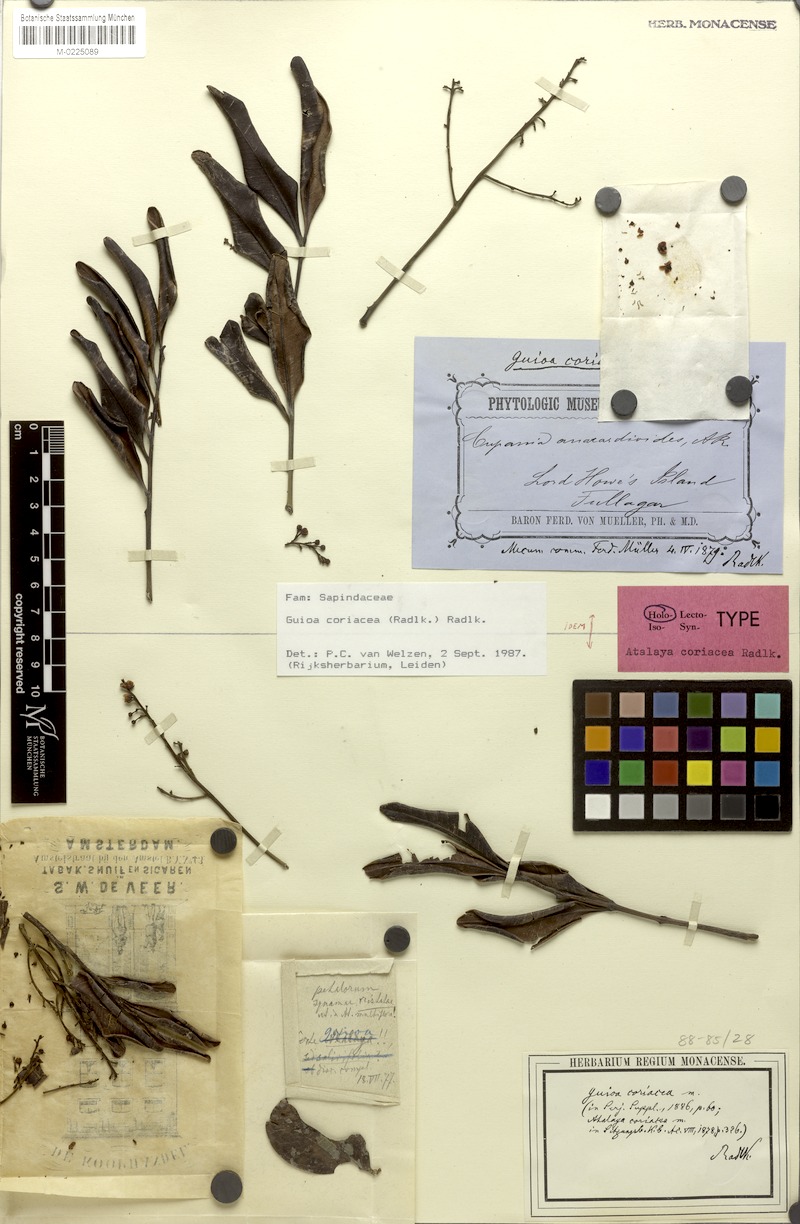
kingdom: Plantae
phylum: Tracheophyta
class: Magnoliopsida
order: Sapindales
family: Sapindaceae
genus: Guioa
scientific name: Guioa coriacea
